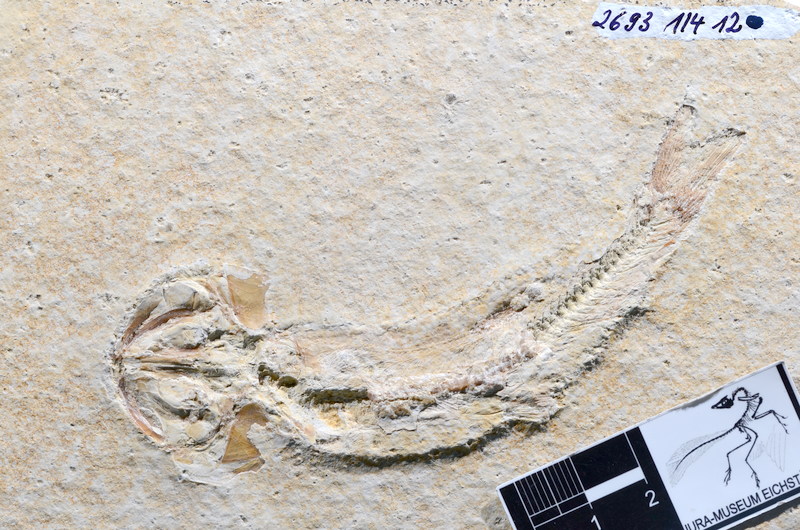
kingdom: Animalia
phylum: Chordata
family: Ascalaboidae
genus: Tharsis
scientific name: Tharsis dubius
